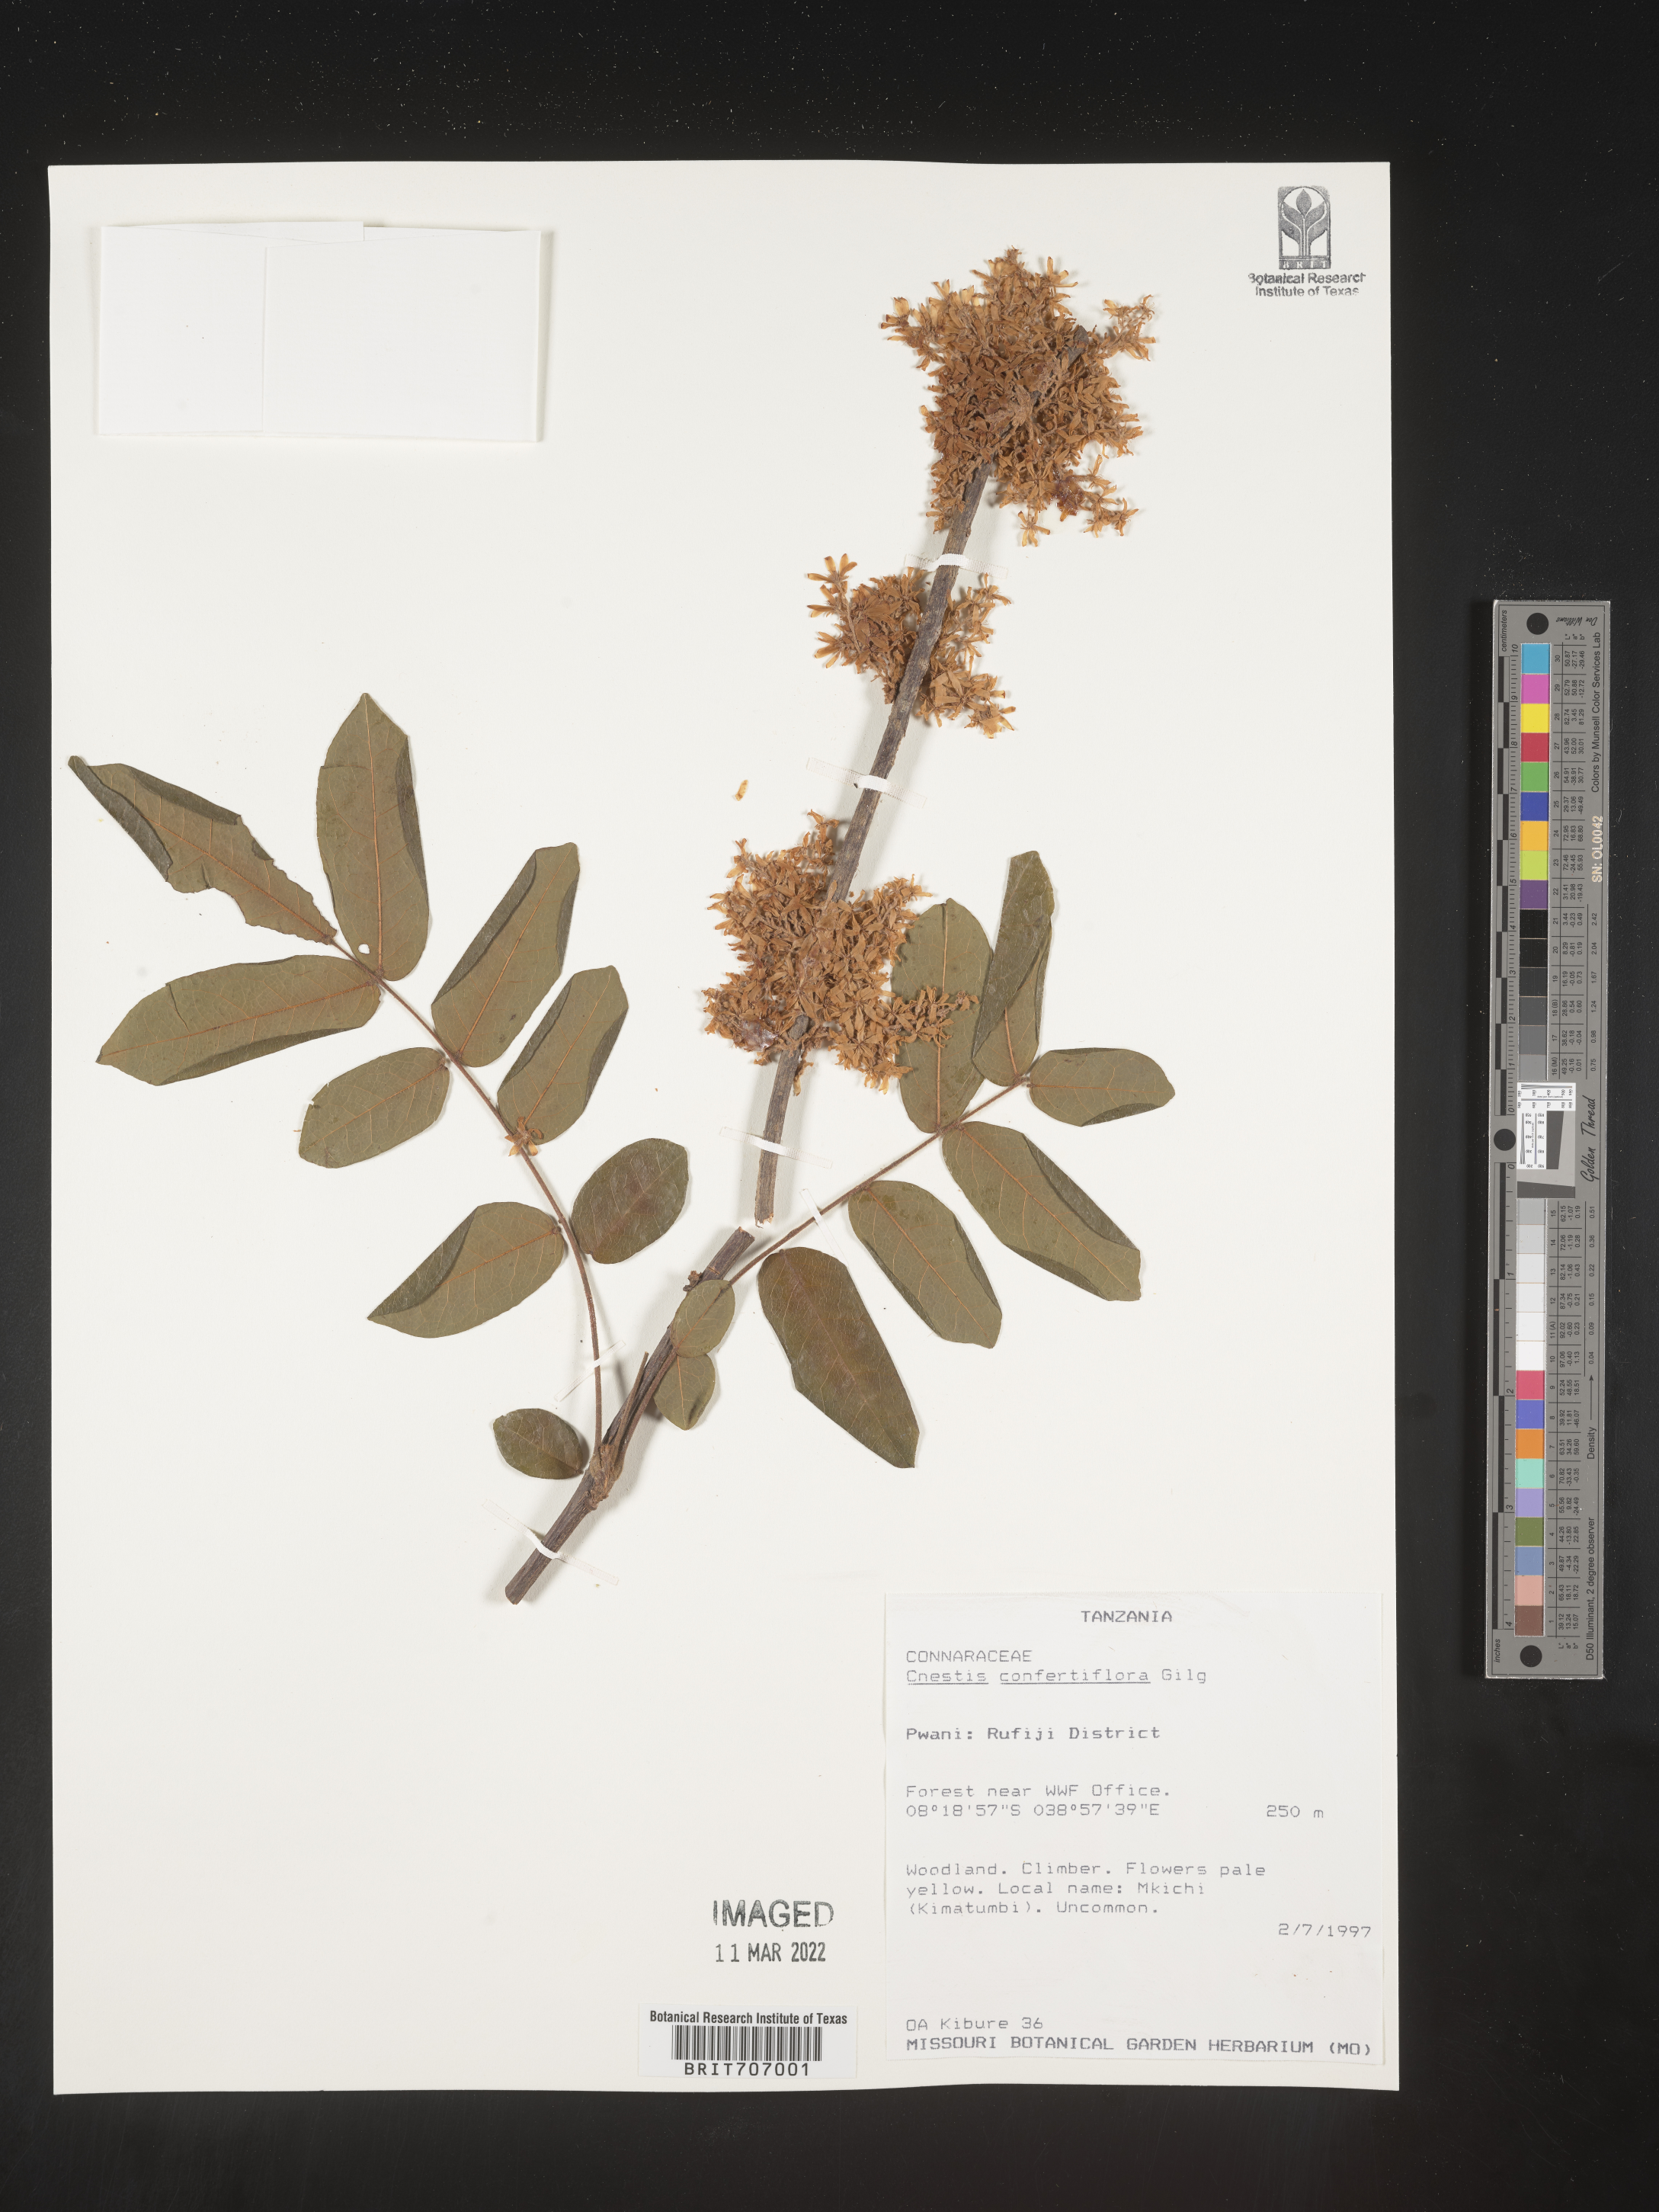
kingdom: Plantae
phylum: Tracheophyta
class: Magnoliopsida
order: Oxalidales
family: Connaraceae
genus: Cnestis
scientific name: Cnestis
